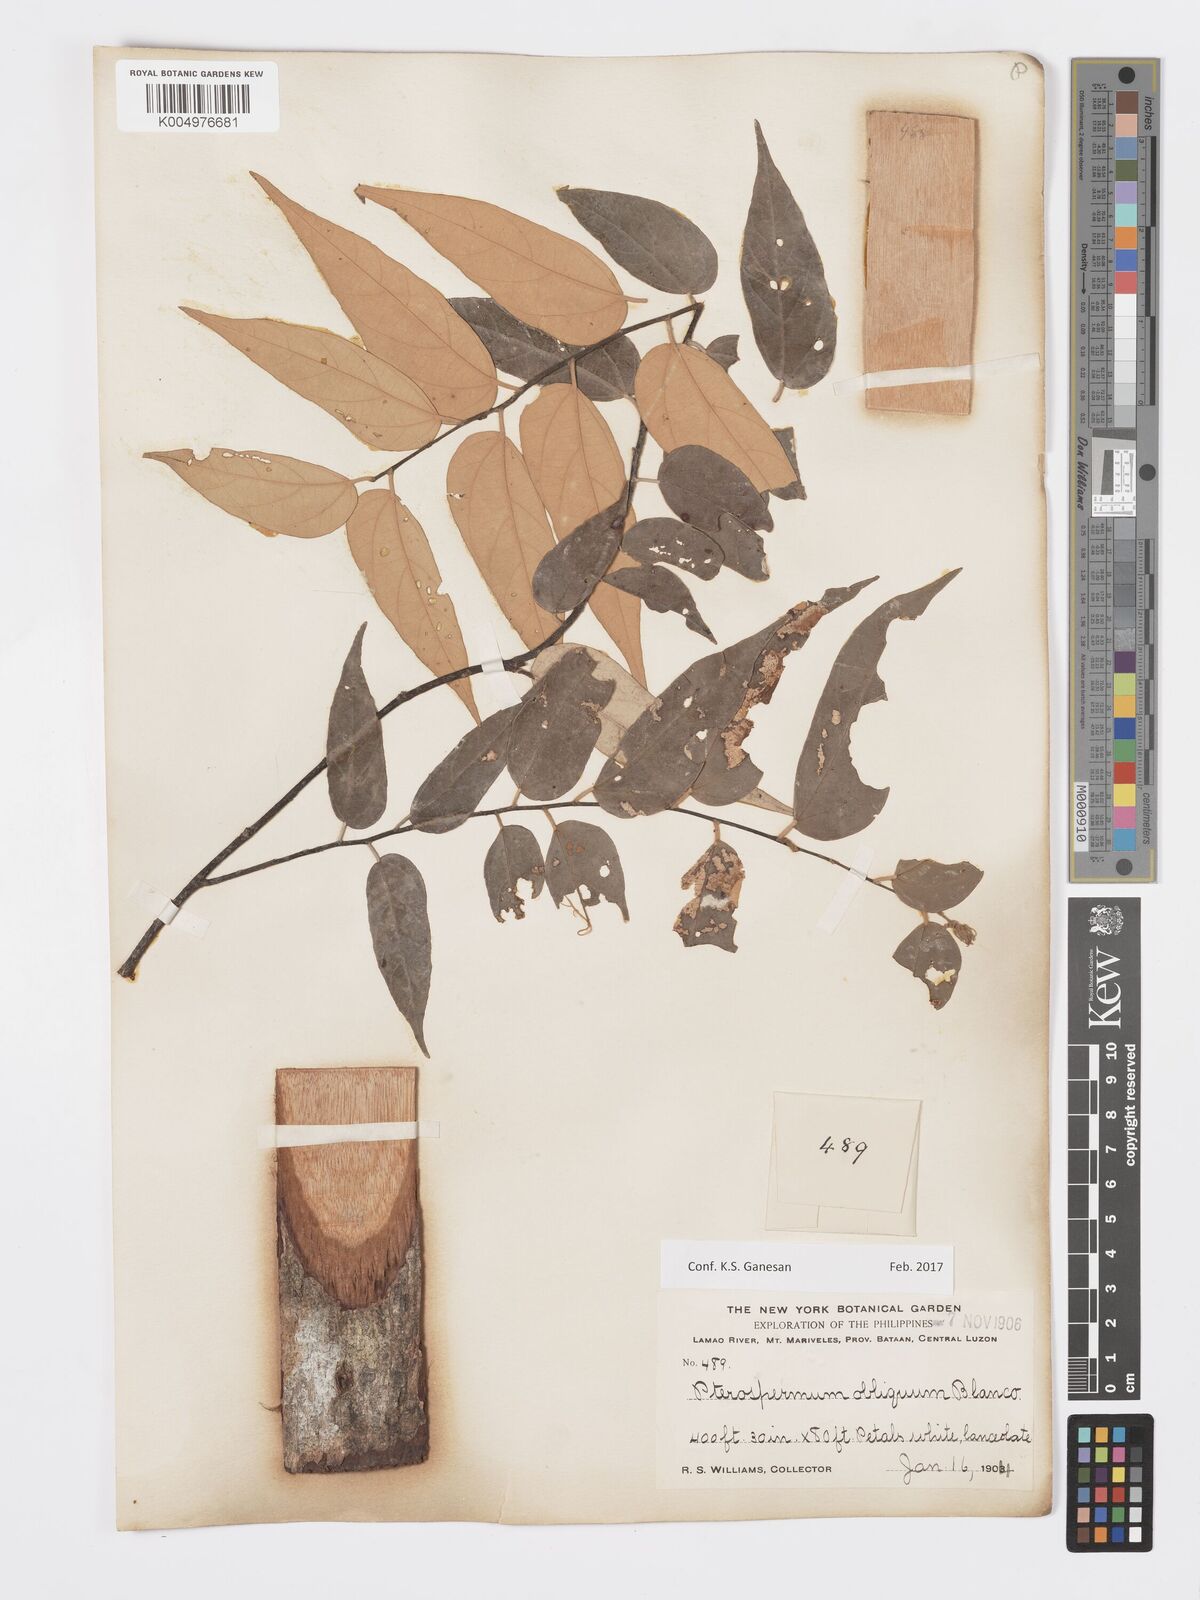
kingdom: Plantae
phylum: Tracheophyta
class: Magnoliopsida
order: Malvales
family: Malvaceae
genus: Pterospermum
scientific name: Pterospermum obliquum
